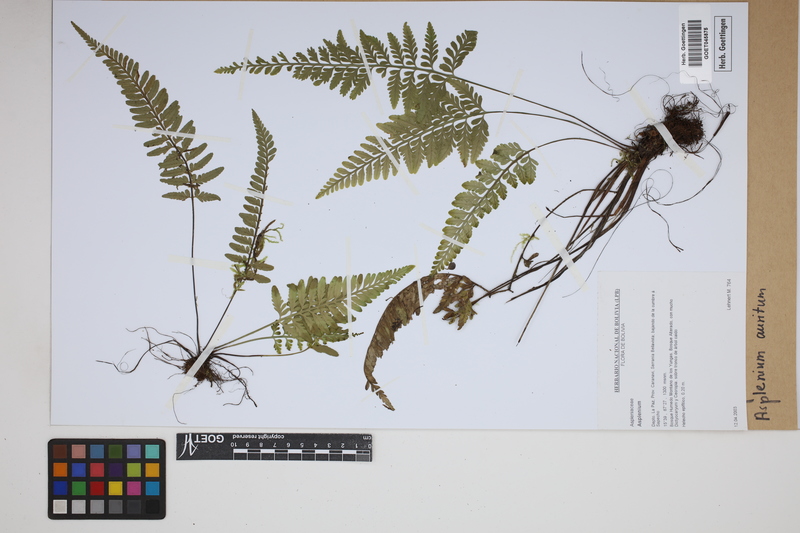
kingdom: Plantae
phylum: Tracheophyta
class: Polypodiopsida
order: Polypodiales
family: Aspleniaceae
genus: Asplenium
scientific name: Asplenium auritum
